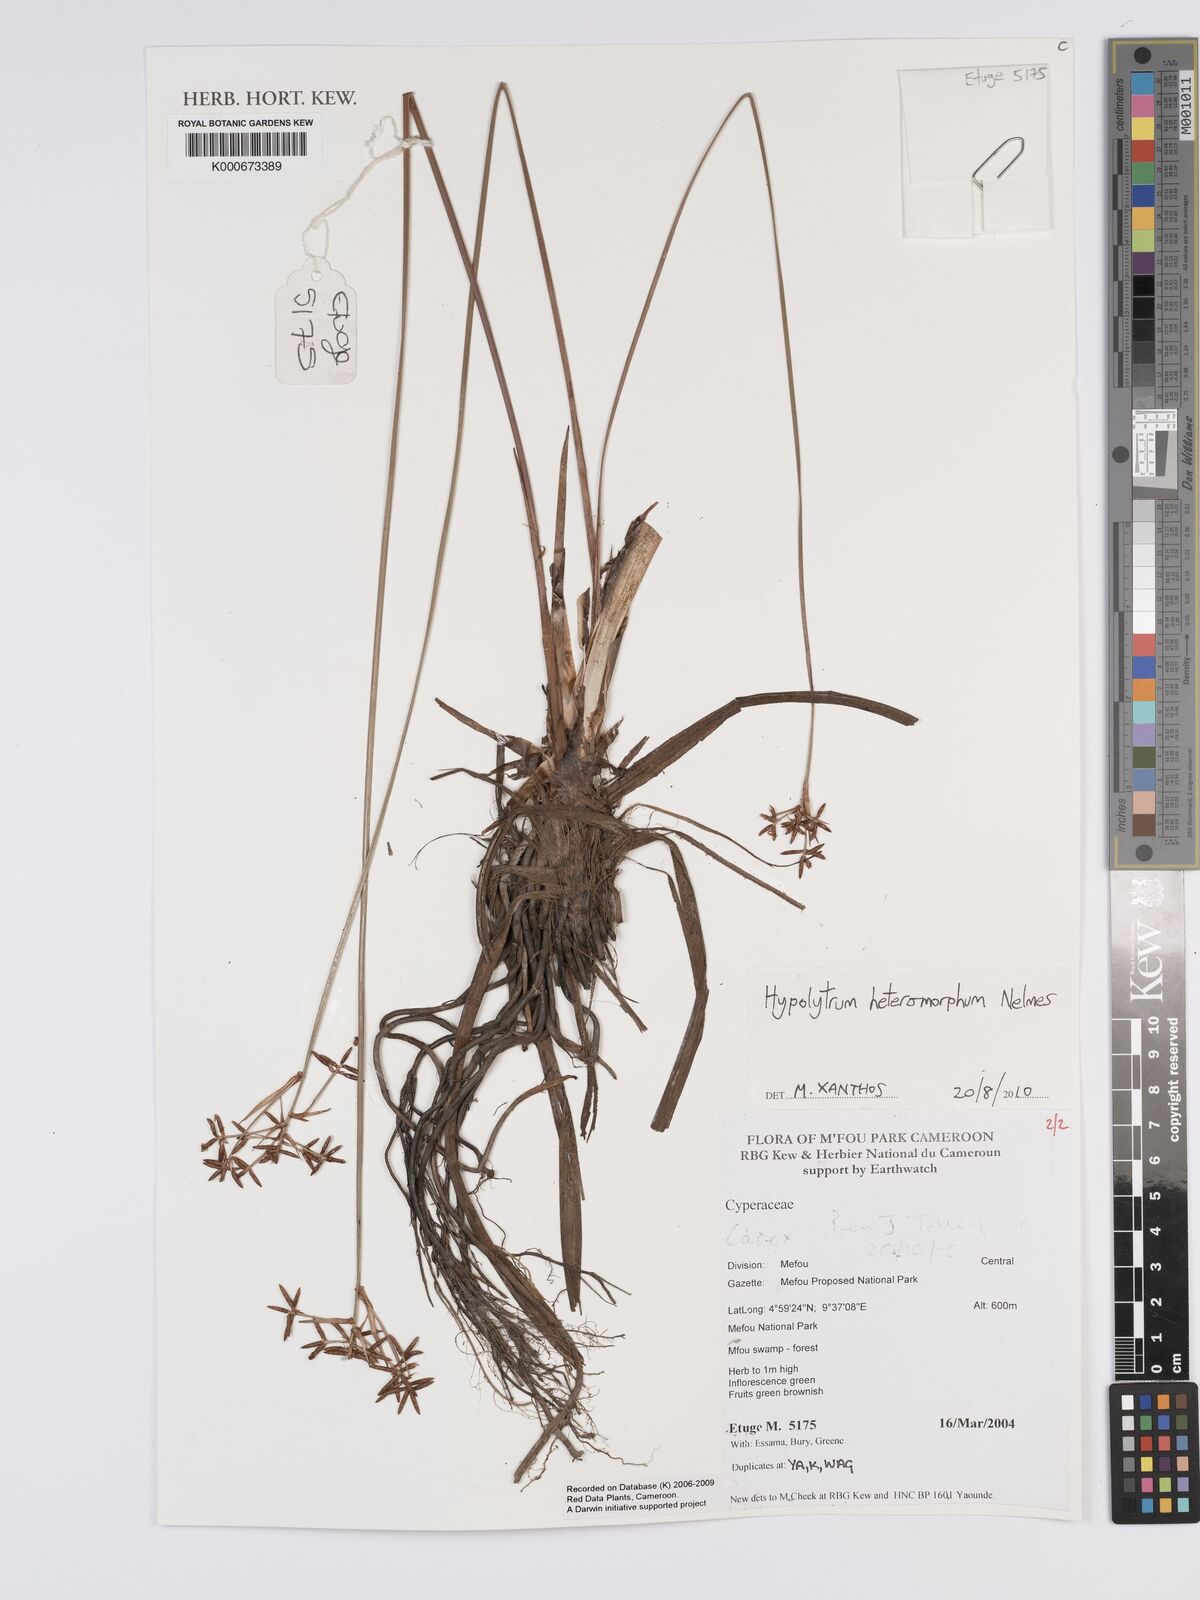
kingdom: Plantae
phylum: Tracheophyta
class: Liliopsida
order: Poales
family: Cyperaceae
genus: Hypolytrum
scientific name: Hypolytrum heteromorphum
